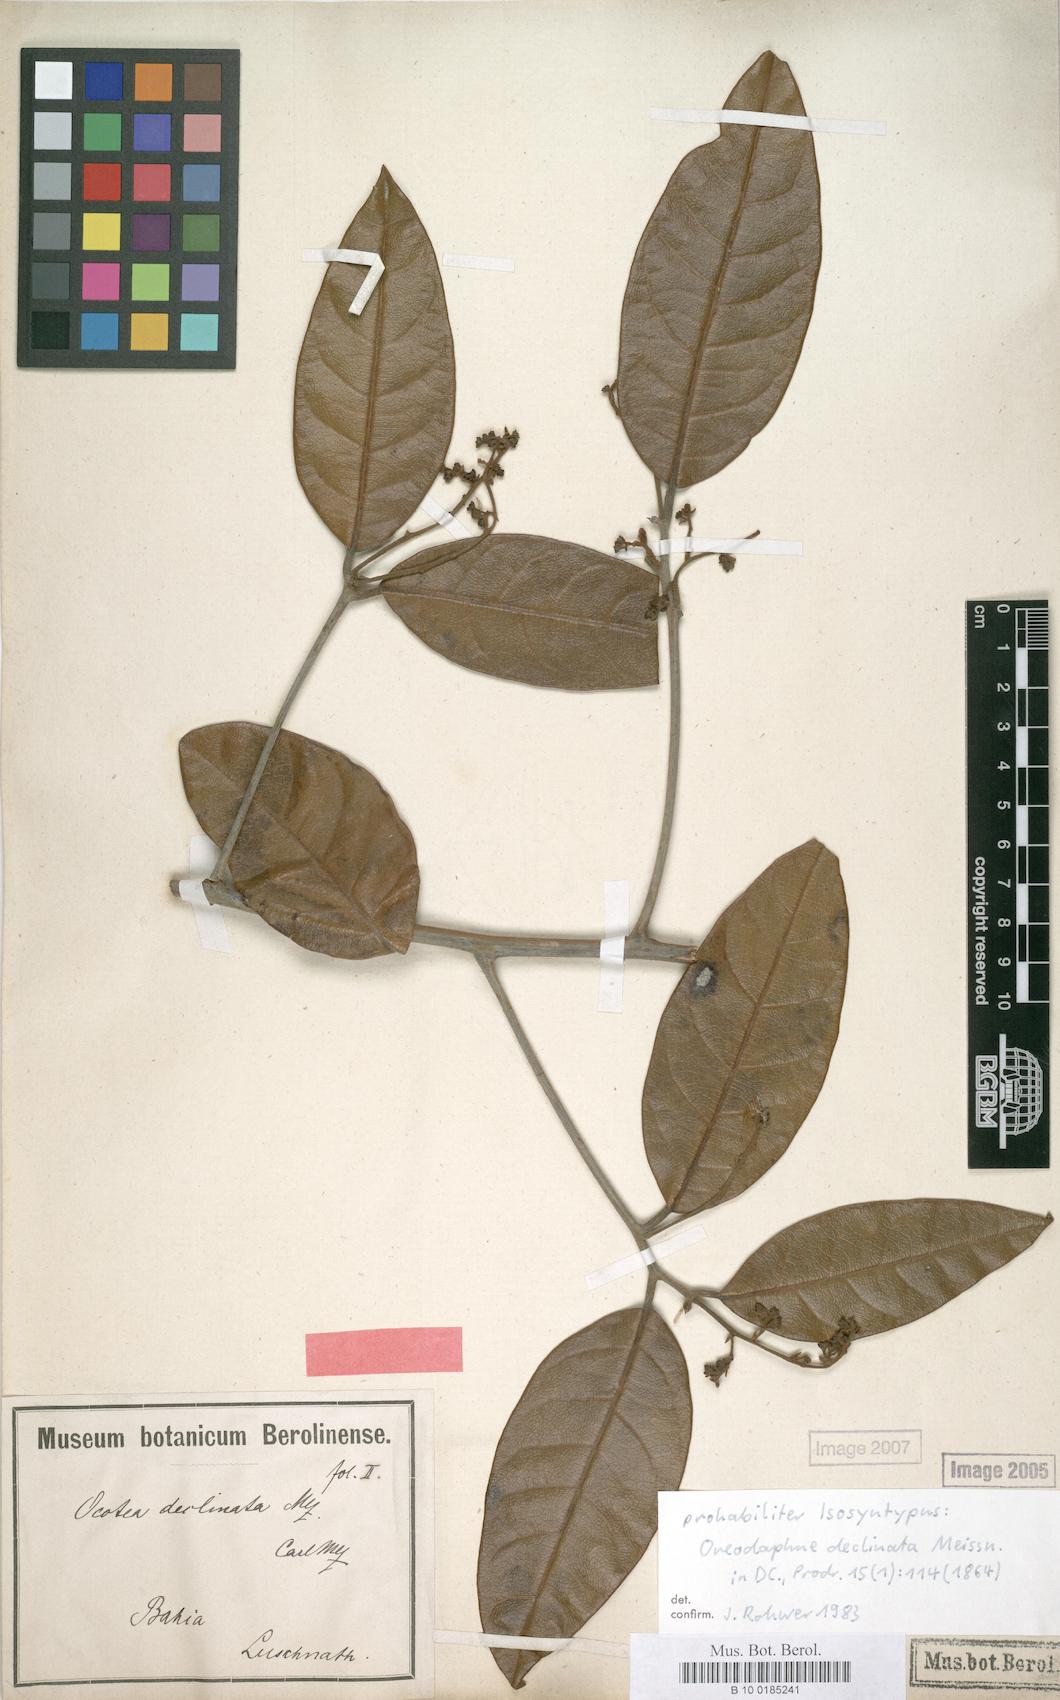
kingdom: Plantae
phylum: Tracheophyta
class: Magnoliopsida
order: Laurales
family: Lauraceae
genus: Ocotea
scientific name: Ocotea deflexa
